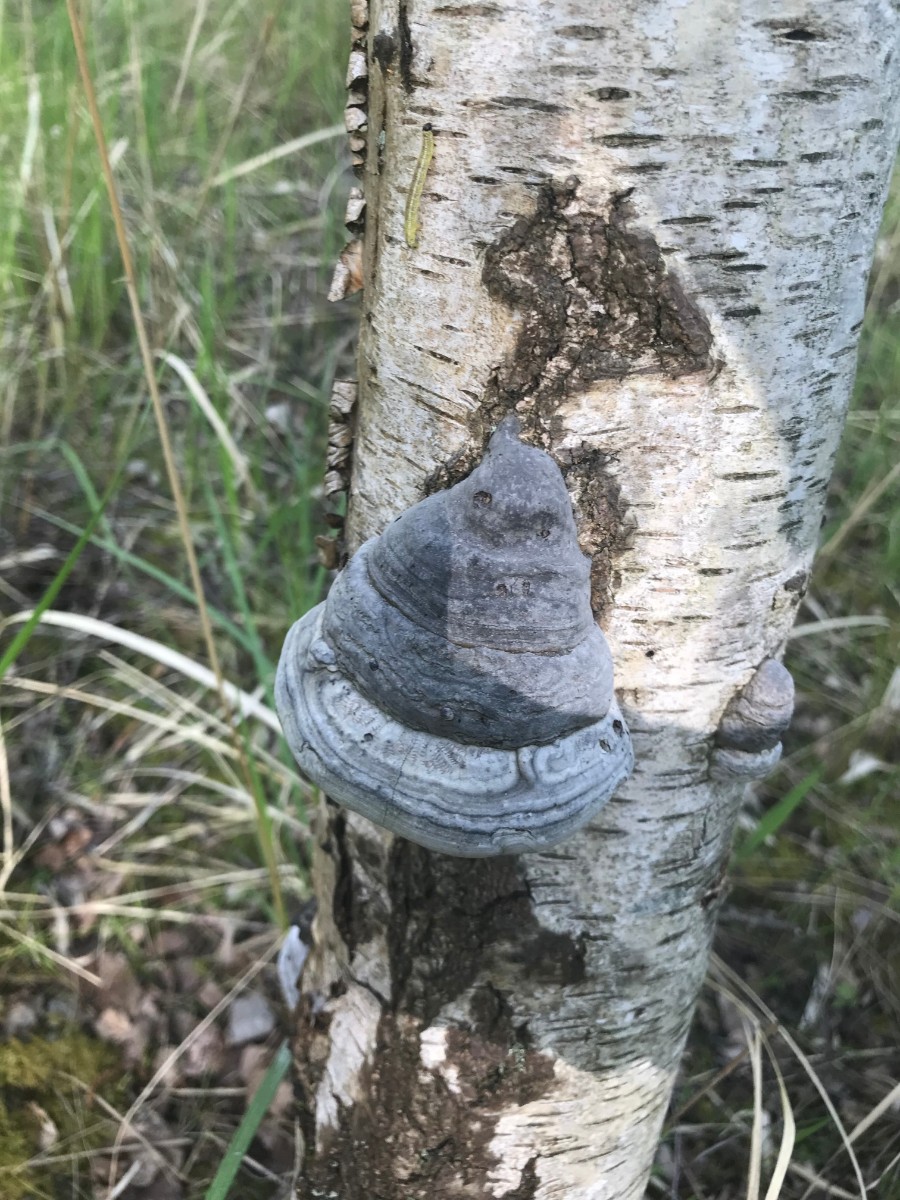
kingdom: Fungi
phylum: Basidiomycota
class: Agaricomycetes
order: Polyporales
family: Polyporaceae
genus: Fomes
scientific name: Fomes fomentarius
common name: tøndersvamp
